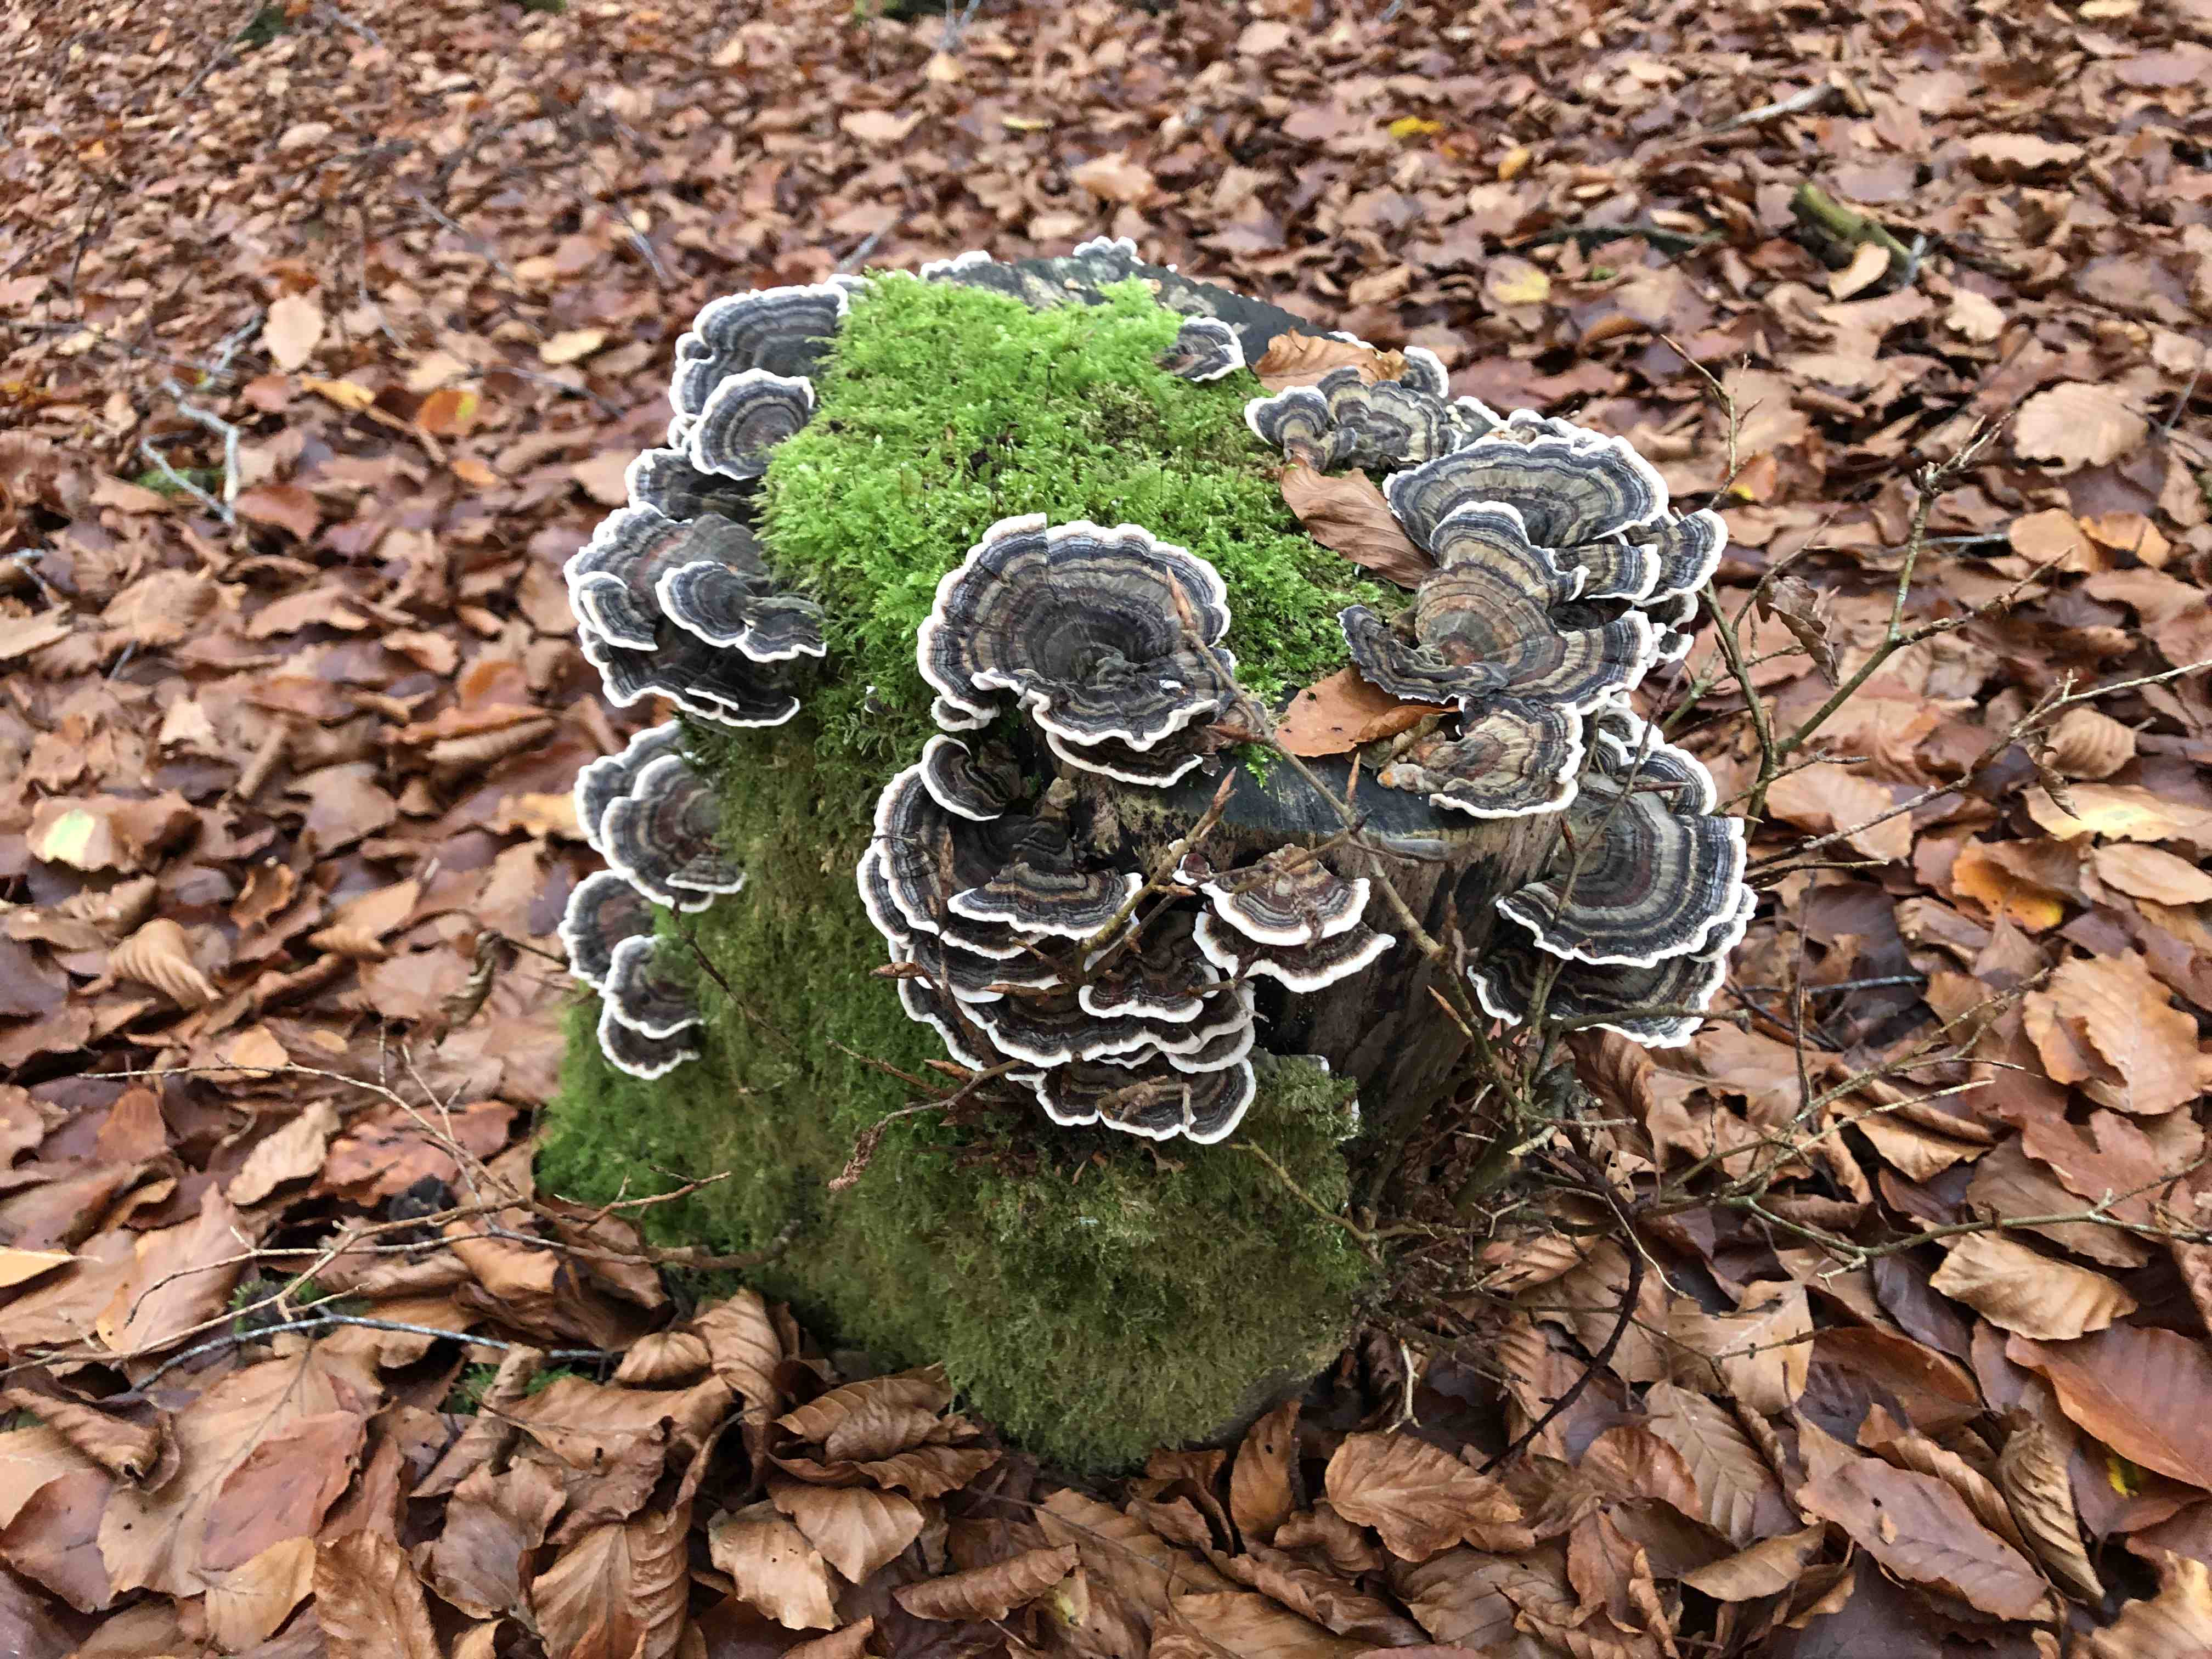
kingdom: Fungi
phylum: Basidiomycota
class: Agaricomycetes
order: Polyporales
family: Polyporaceae
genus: Trametes
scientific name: Trametes versicolor
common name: broget læderporesvamp
